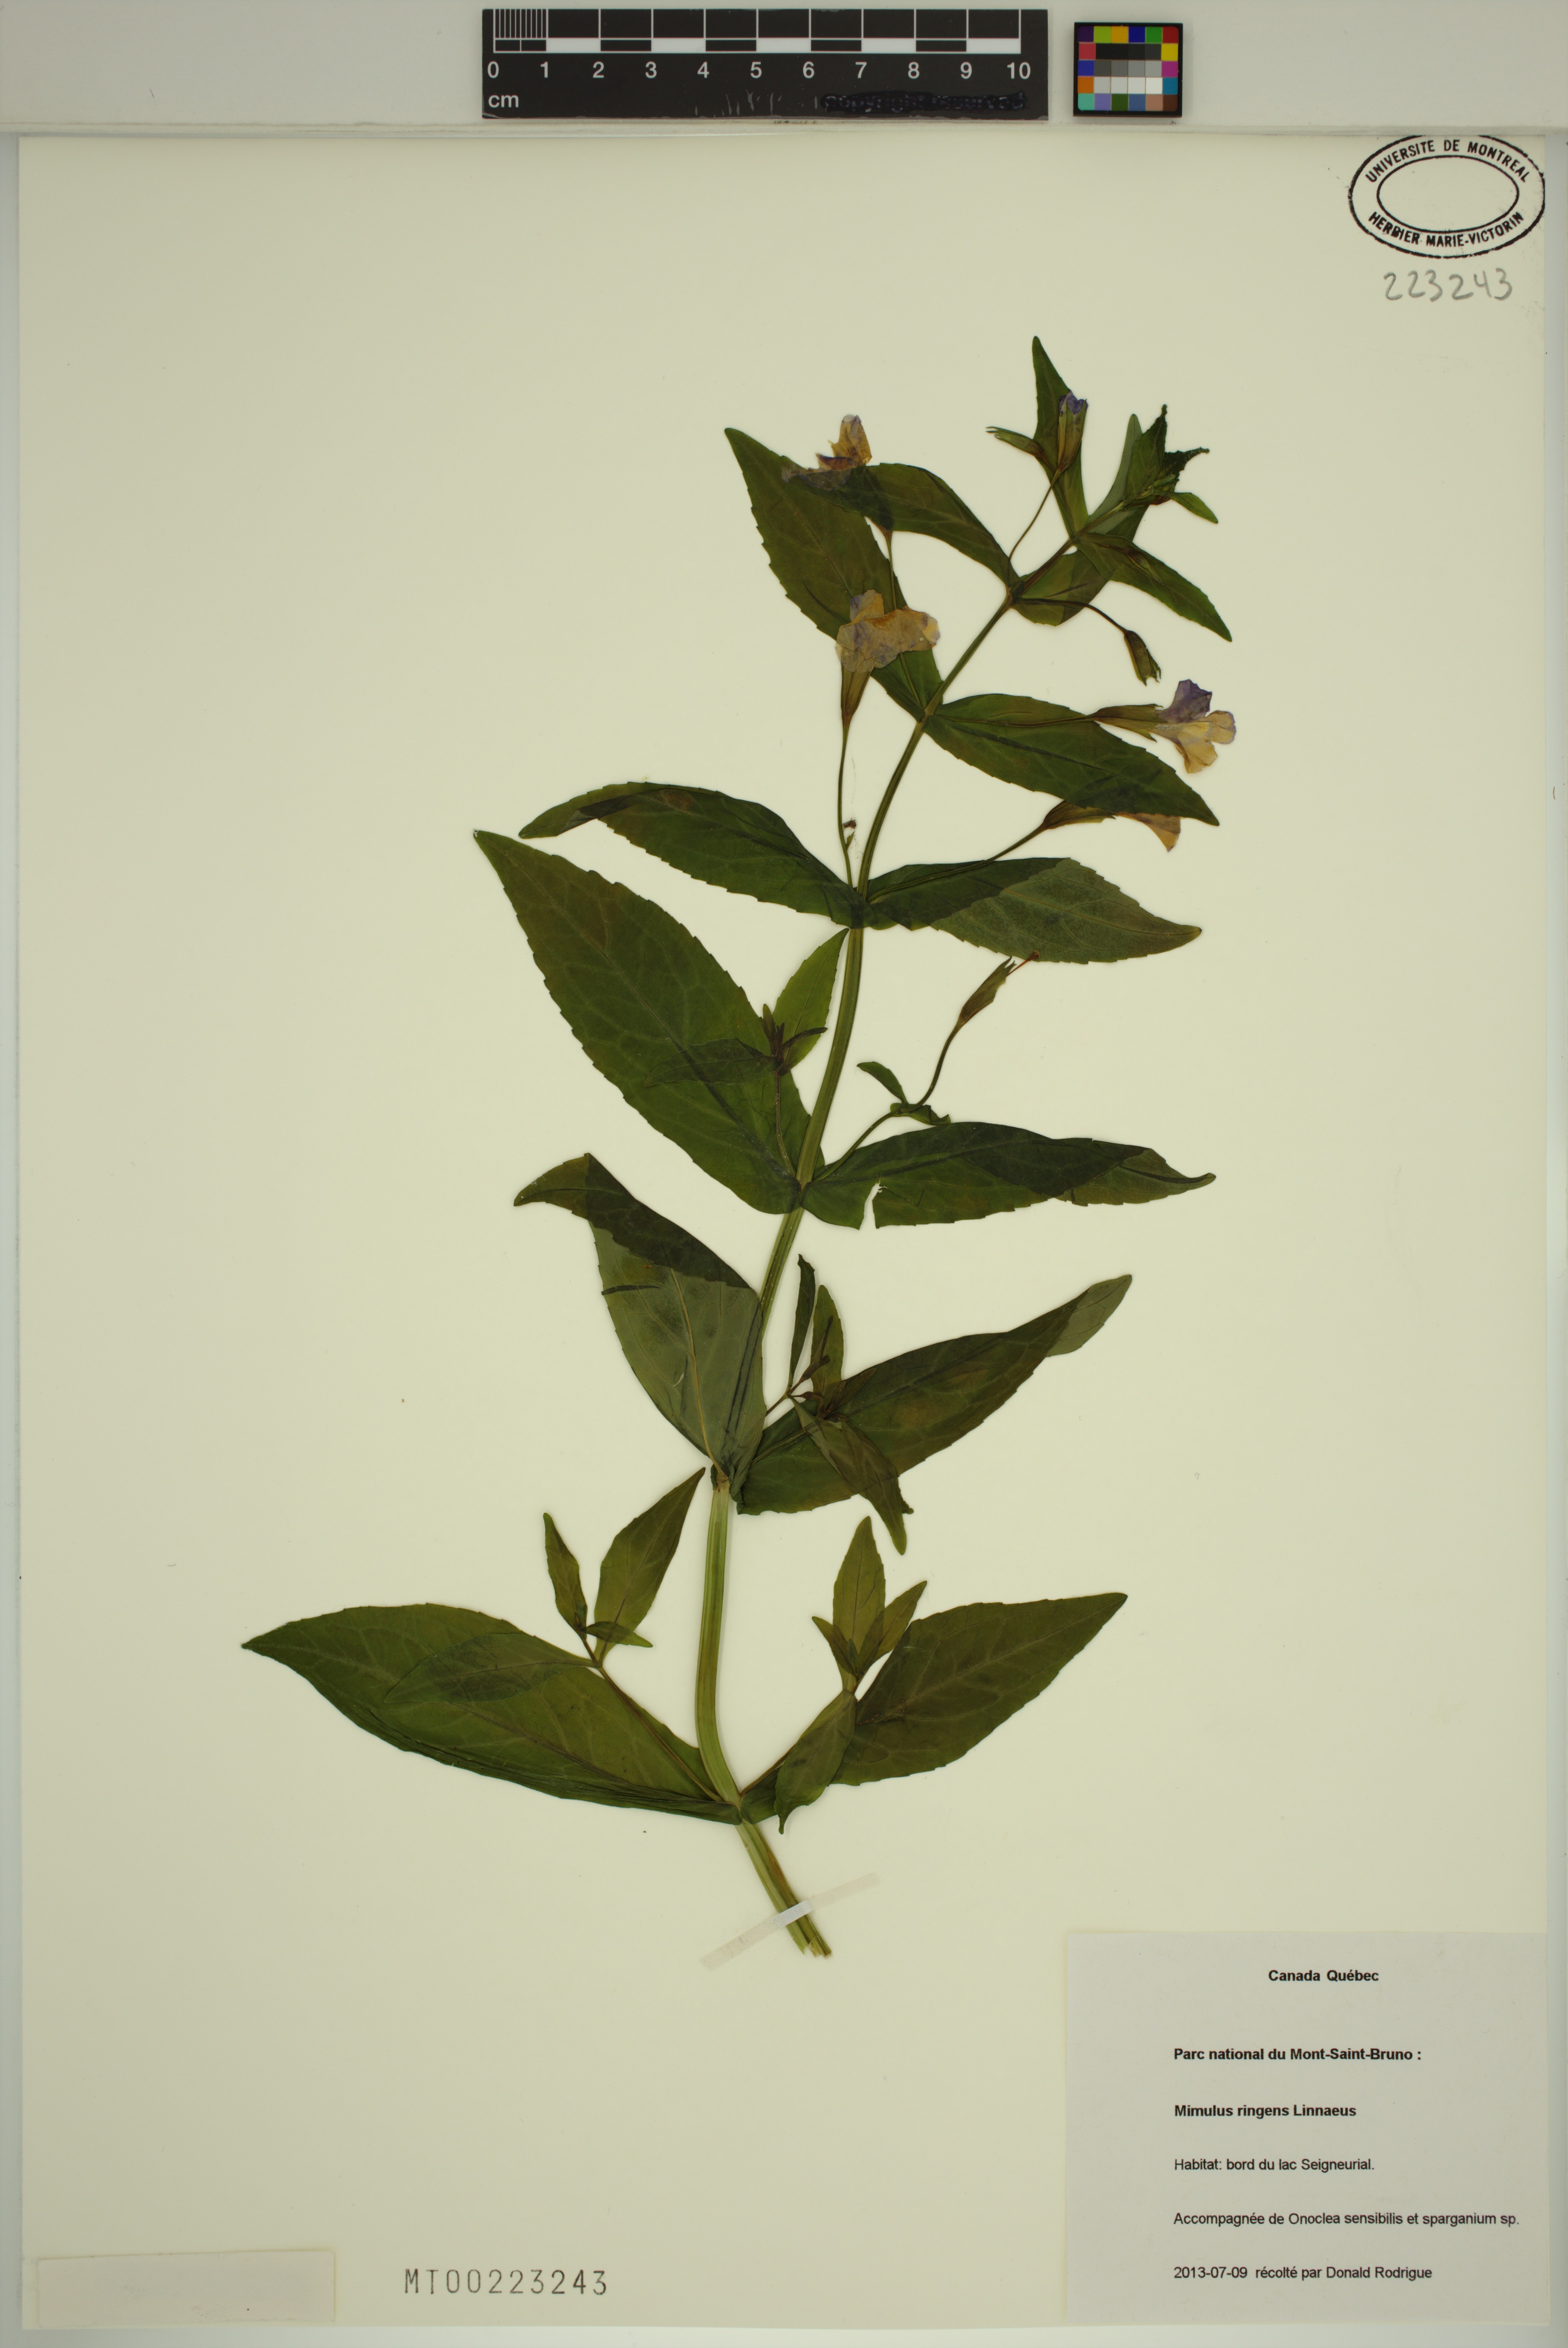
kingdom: Plantae
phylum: Tracheophyta
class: Magnoliopsida
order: Lamiales
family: Phrymaceae
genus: Mimulus
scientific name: Mimulus ringens
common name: Allegheny monkeyflower
